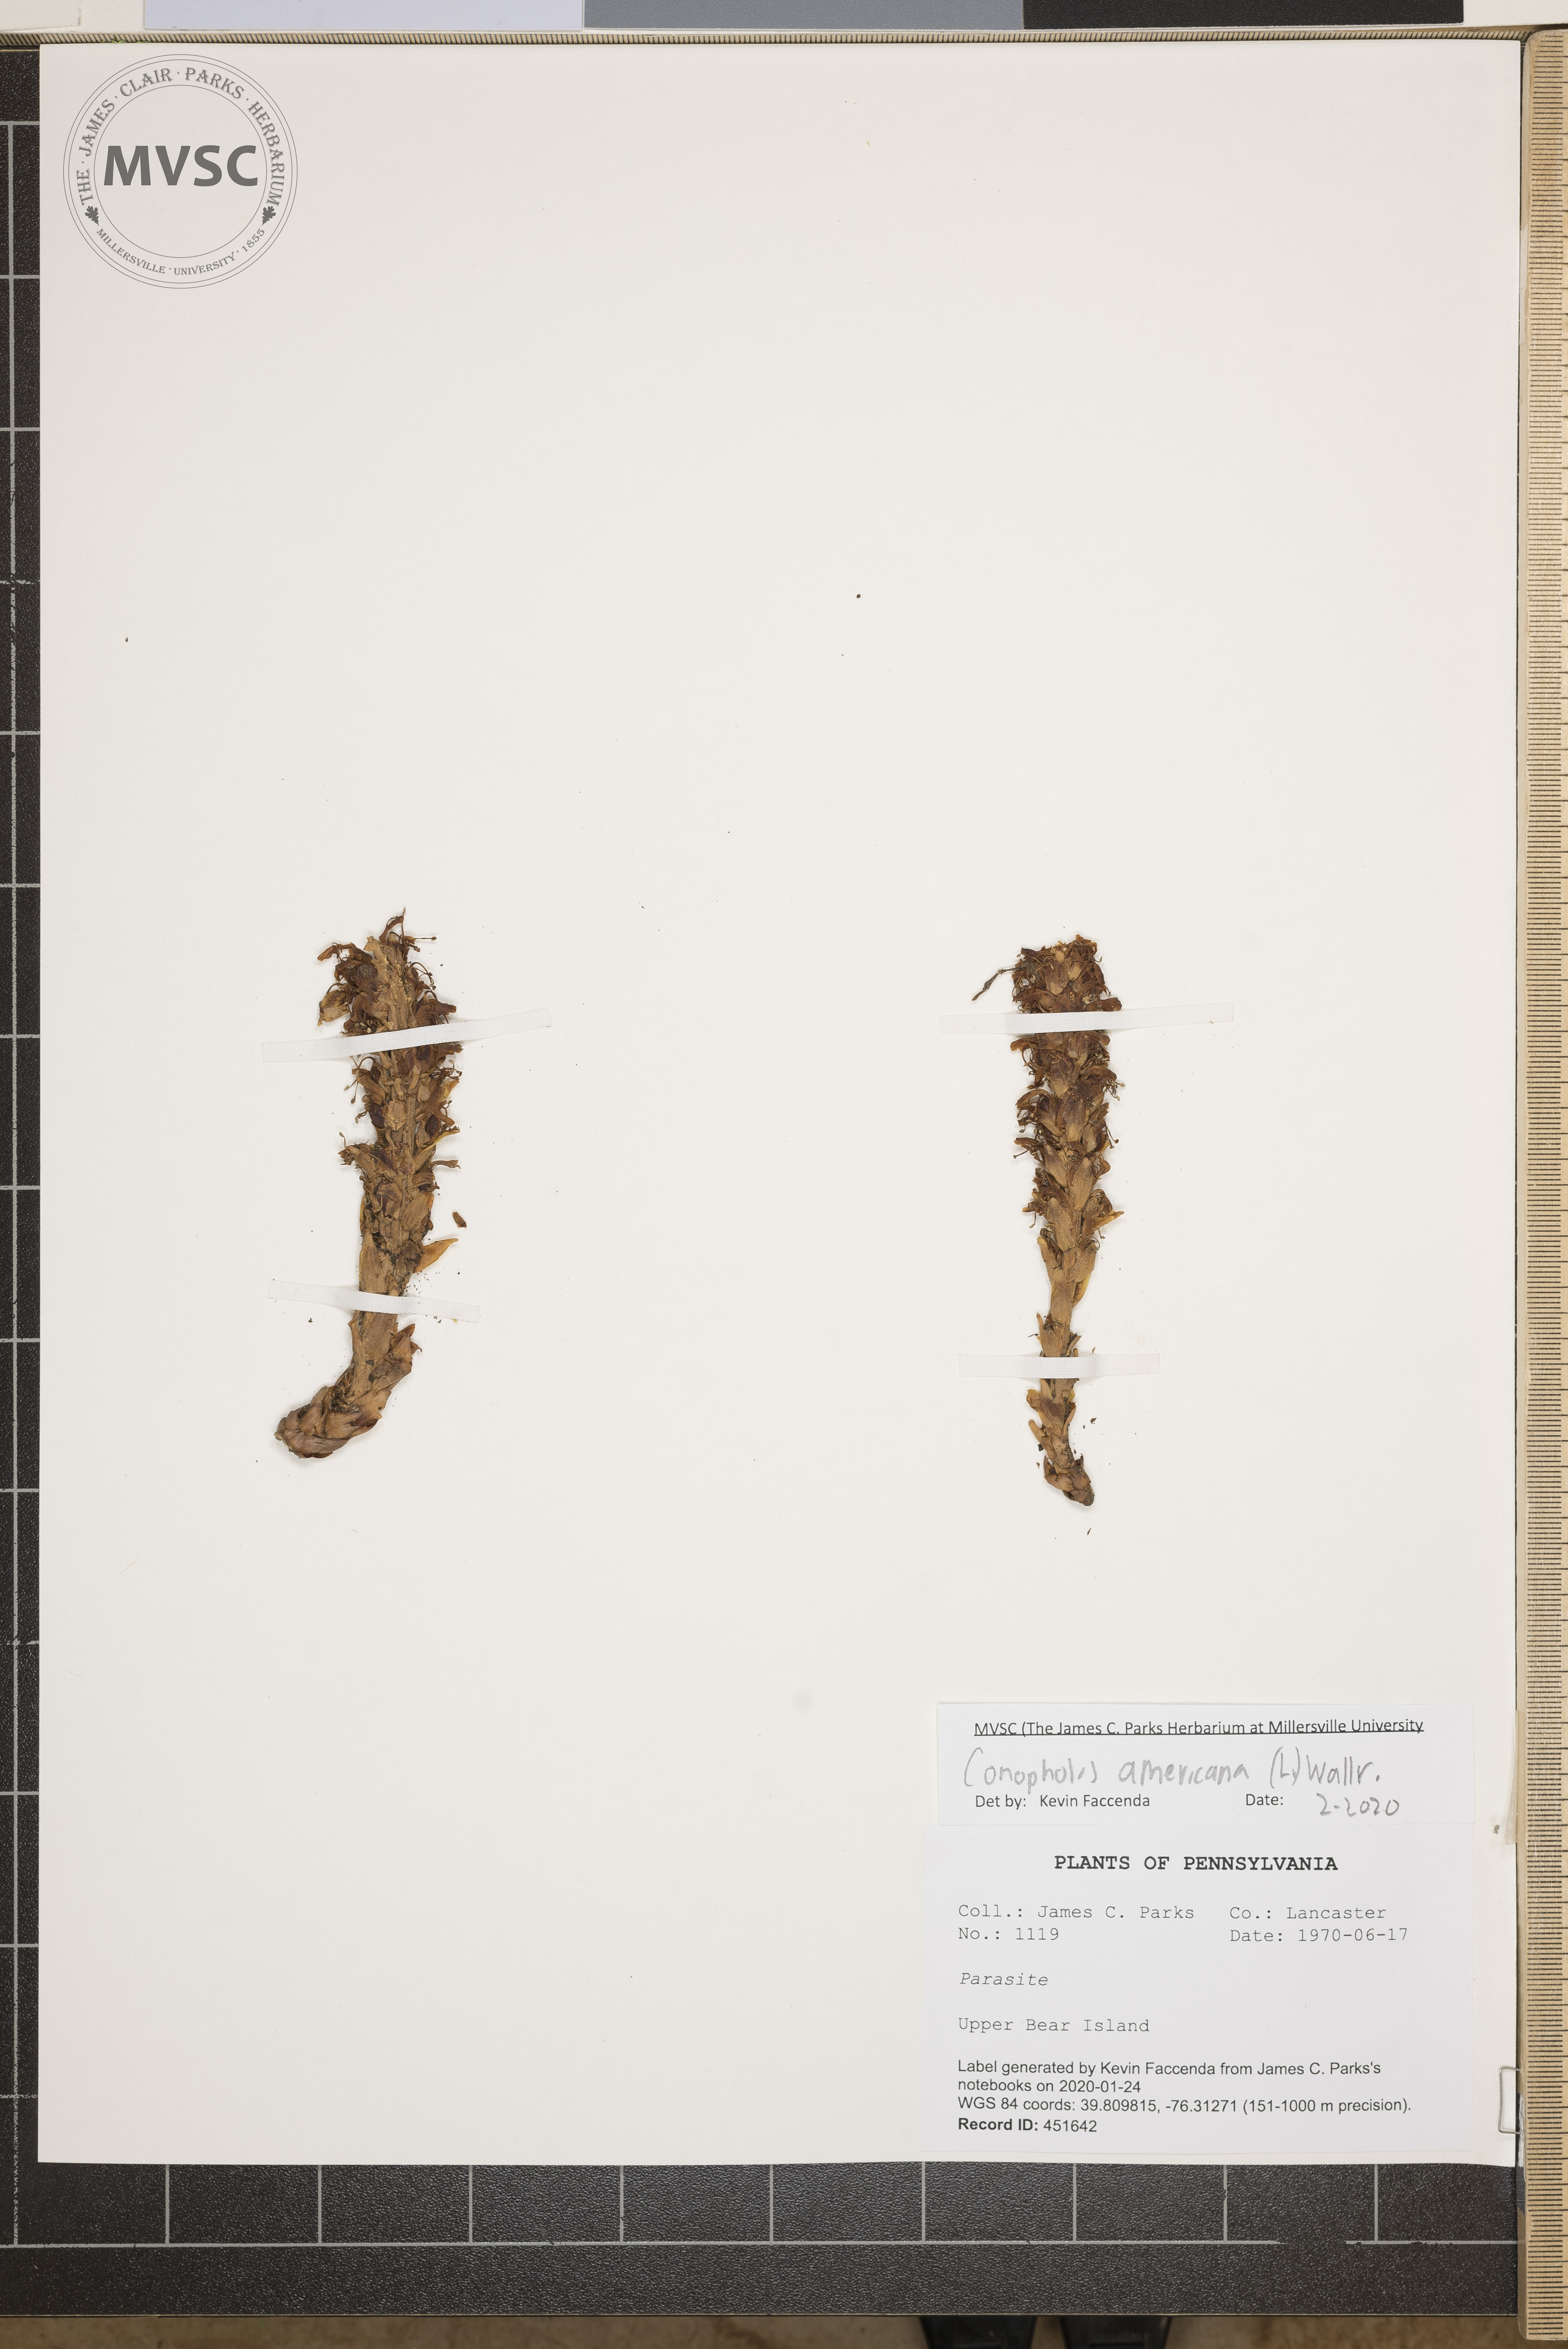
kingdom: Plantae
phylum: Tracheophyta
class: Magnoliopsida
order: Lamiales
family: Orobanchaceae
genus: Conopholis
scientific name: Conopholis americana
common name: American cancer-root
